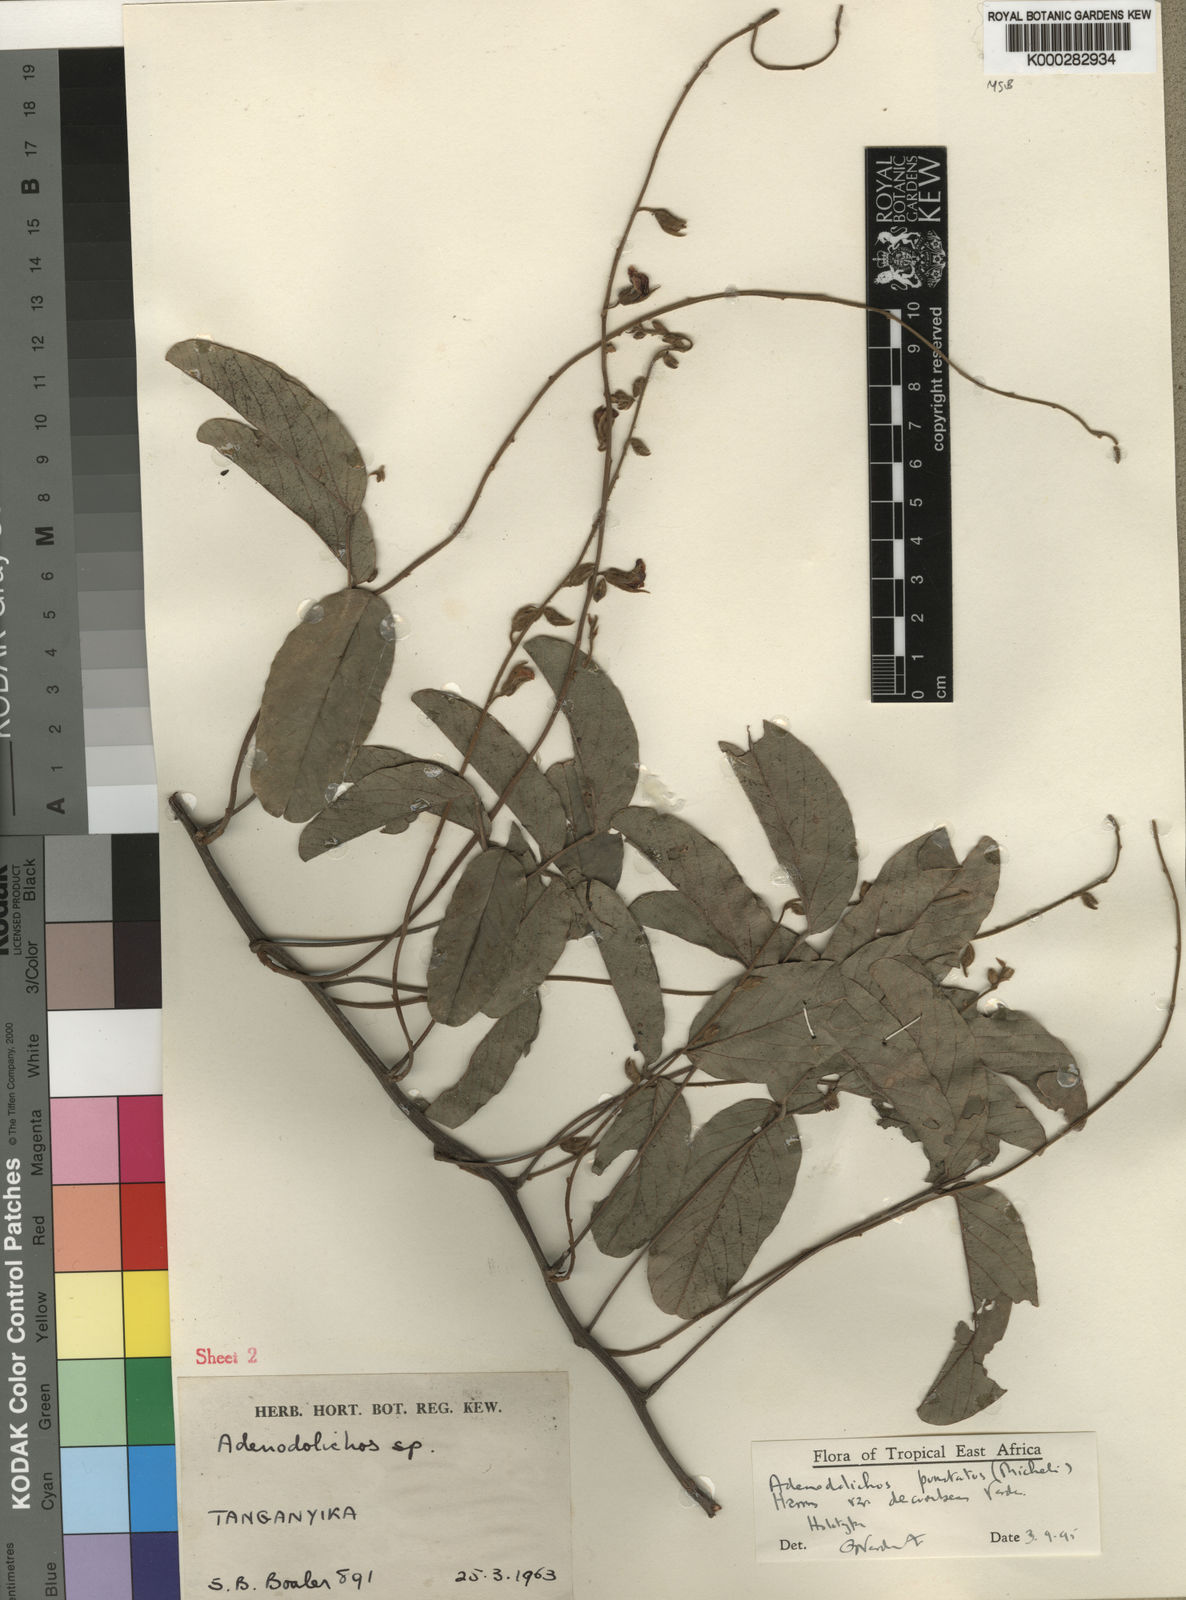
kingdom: Plantae
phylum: Tracheophyta
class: Magnoliopsida
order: Fabales
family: Fabaceae
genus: Adenodolichos
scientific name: Adenodolichos punctatus
